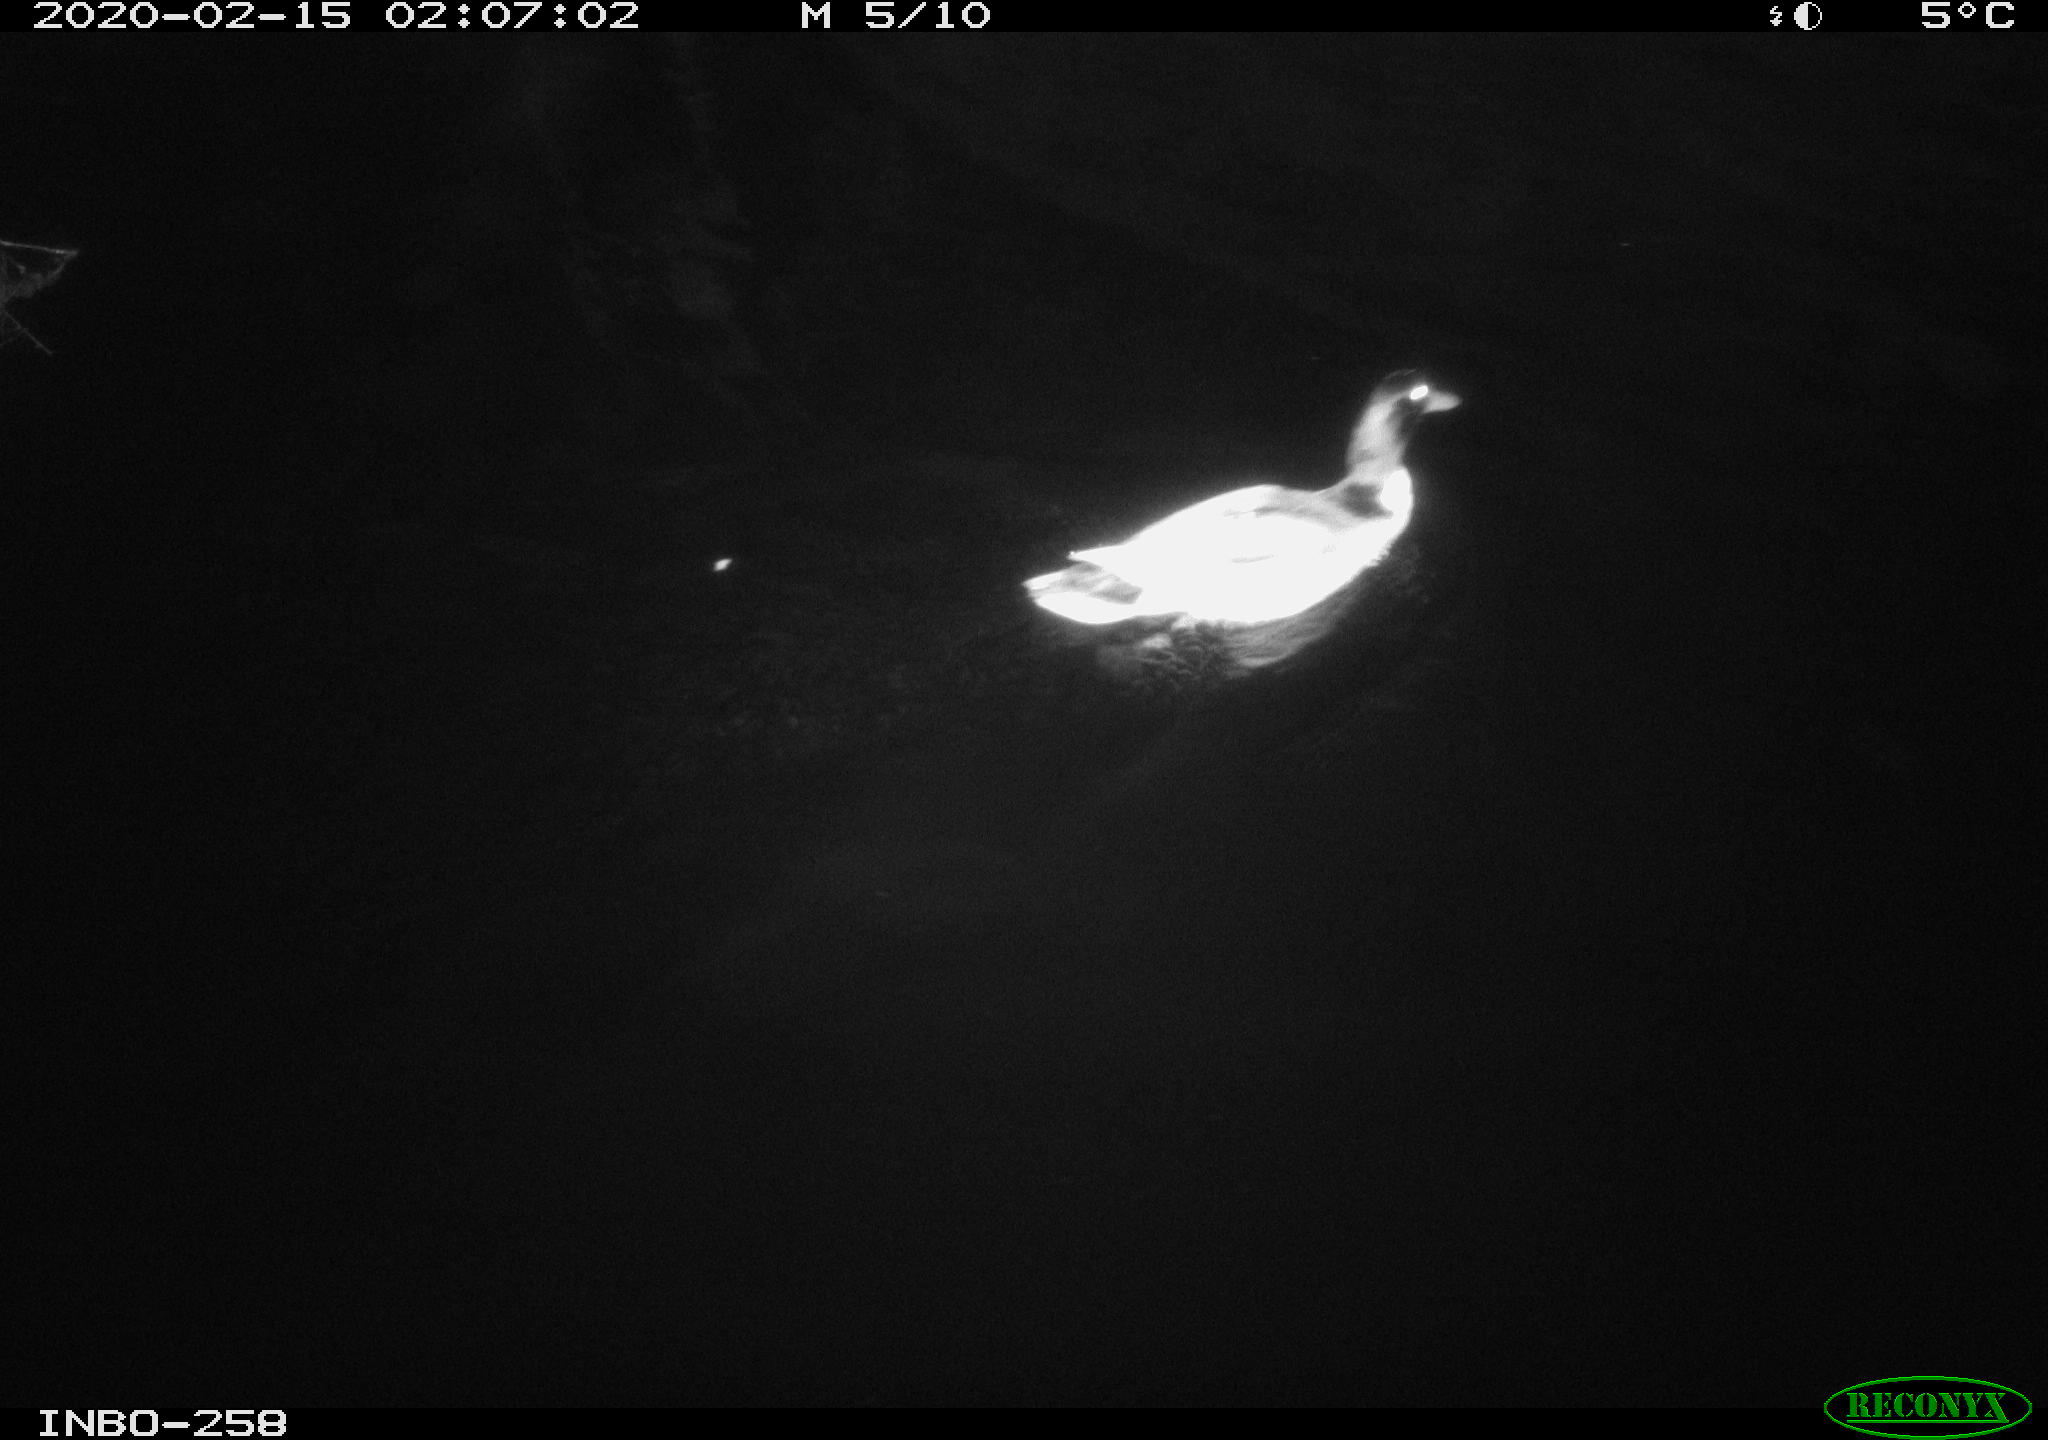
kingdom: Animalia
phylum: Chordata
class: Aves
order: Anseriformes
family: Anatidae
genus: Anas
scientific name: Anas platyrhynchos
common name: Mallard
